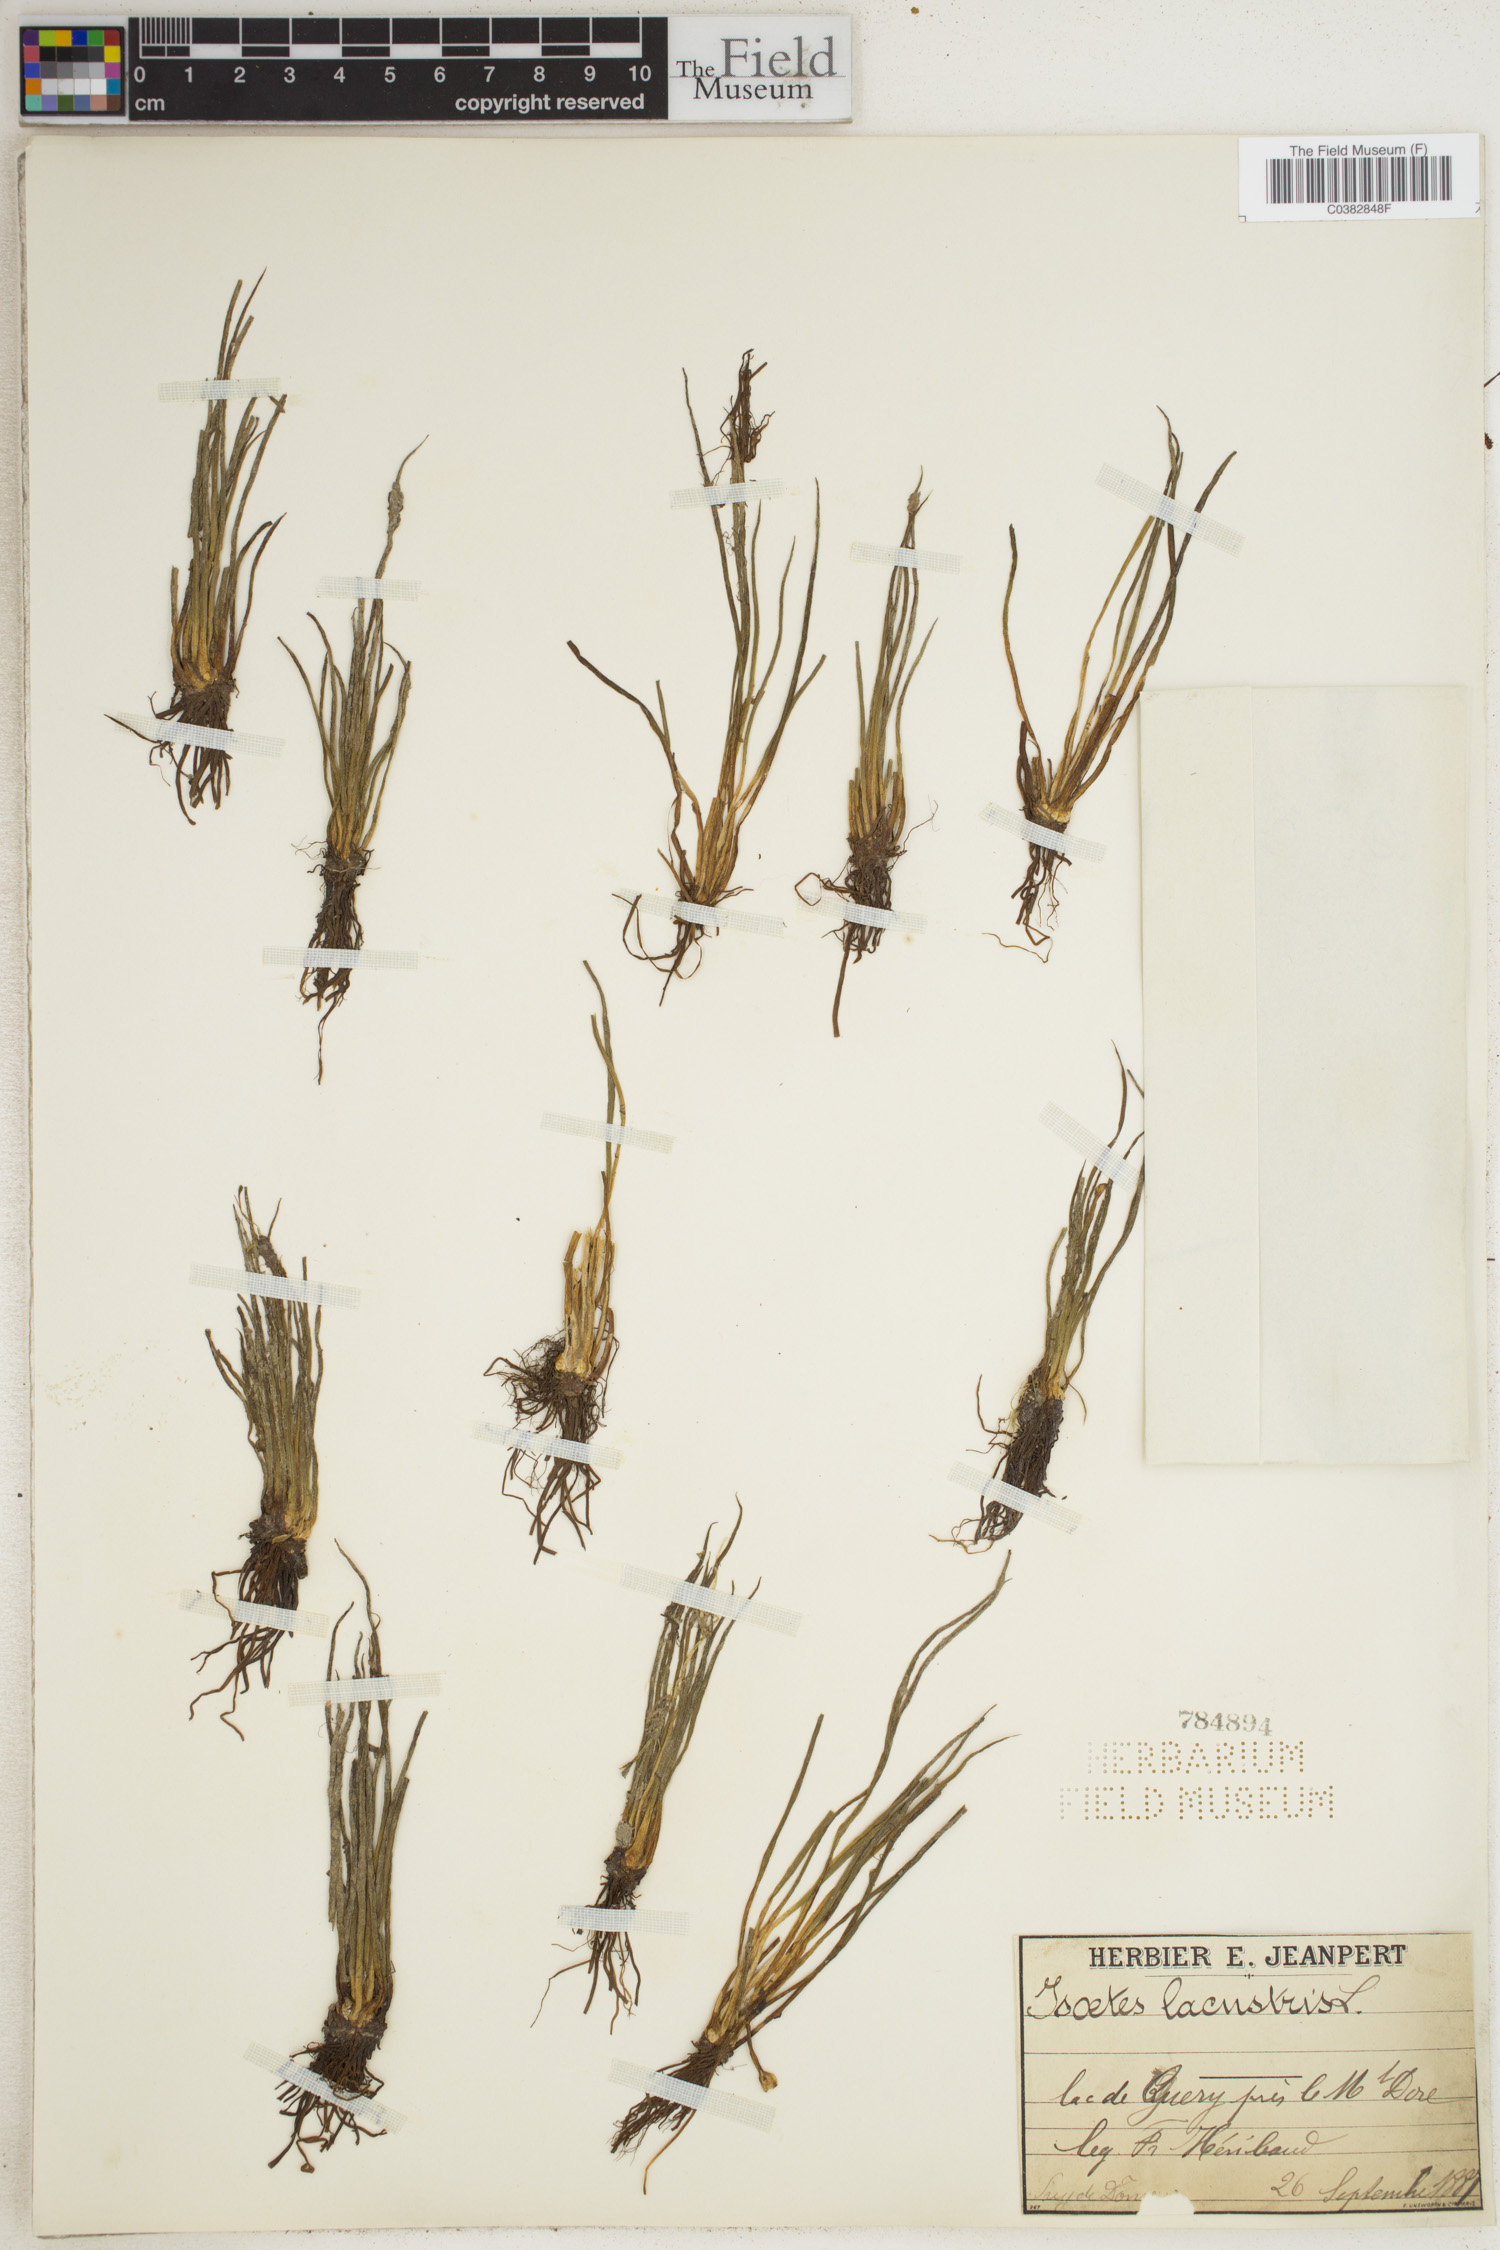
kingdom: Plantae
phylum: Tracheophyta
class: Lycopodiopsida
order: Isoetales
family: Isoetaceae
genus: Isoetes
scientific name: Isoetes lacustris
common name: Common quillwort
